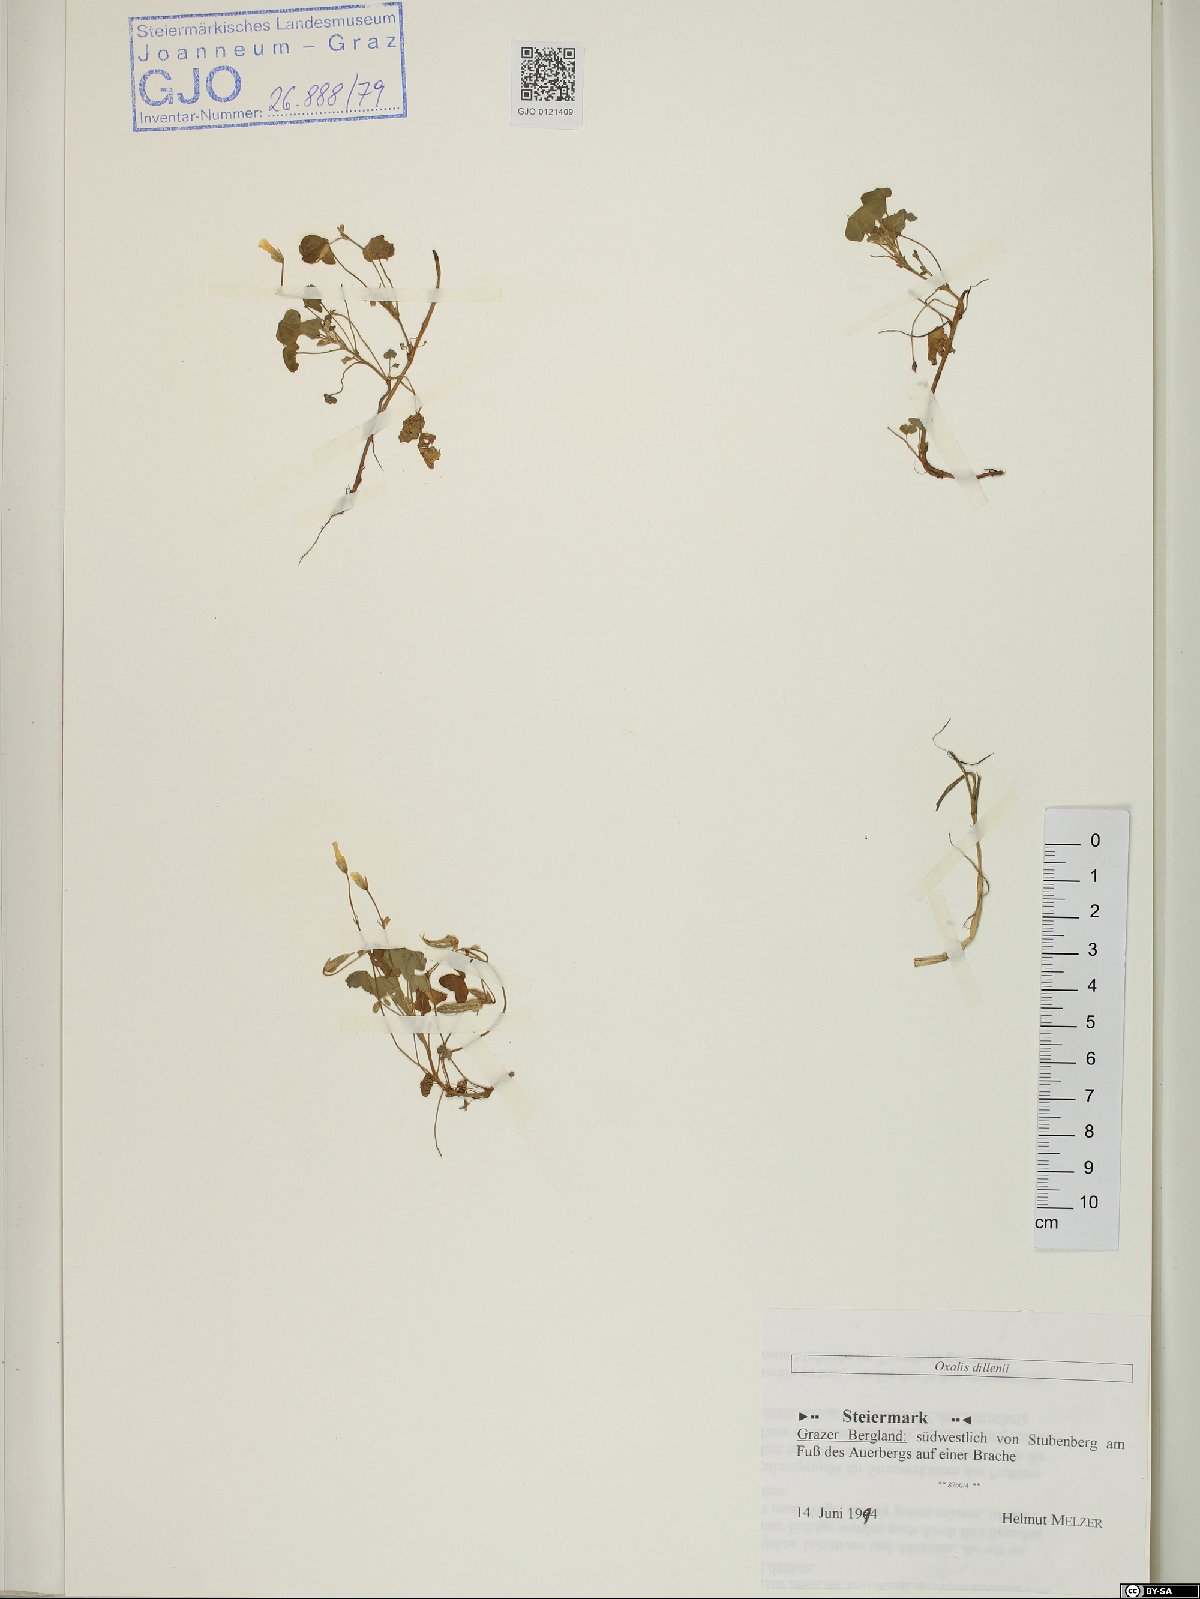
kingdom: Plantae
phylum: Tracheophyta
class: Magnoliopsida
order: Oxalidales
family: Oxalidaceae
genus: Oxalis
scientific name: Oxalis dillenii
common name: Sussex yellow-sorrel
